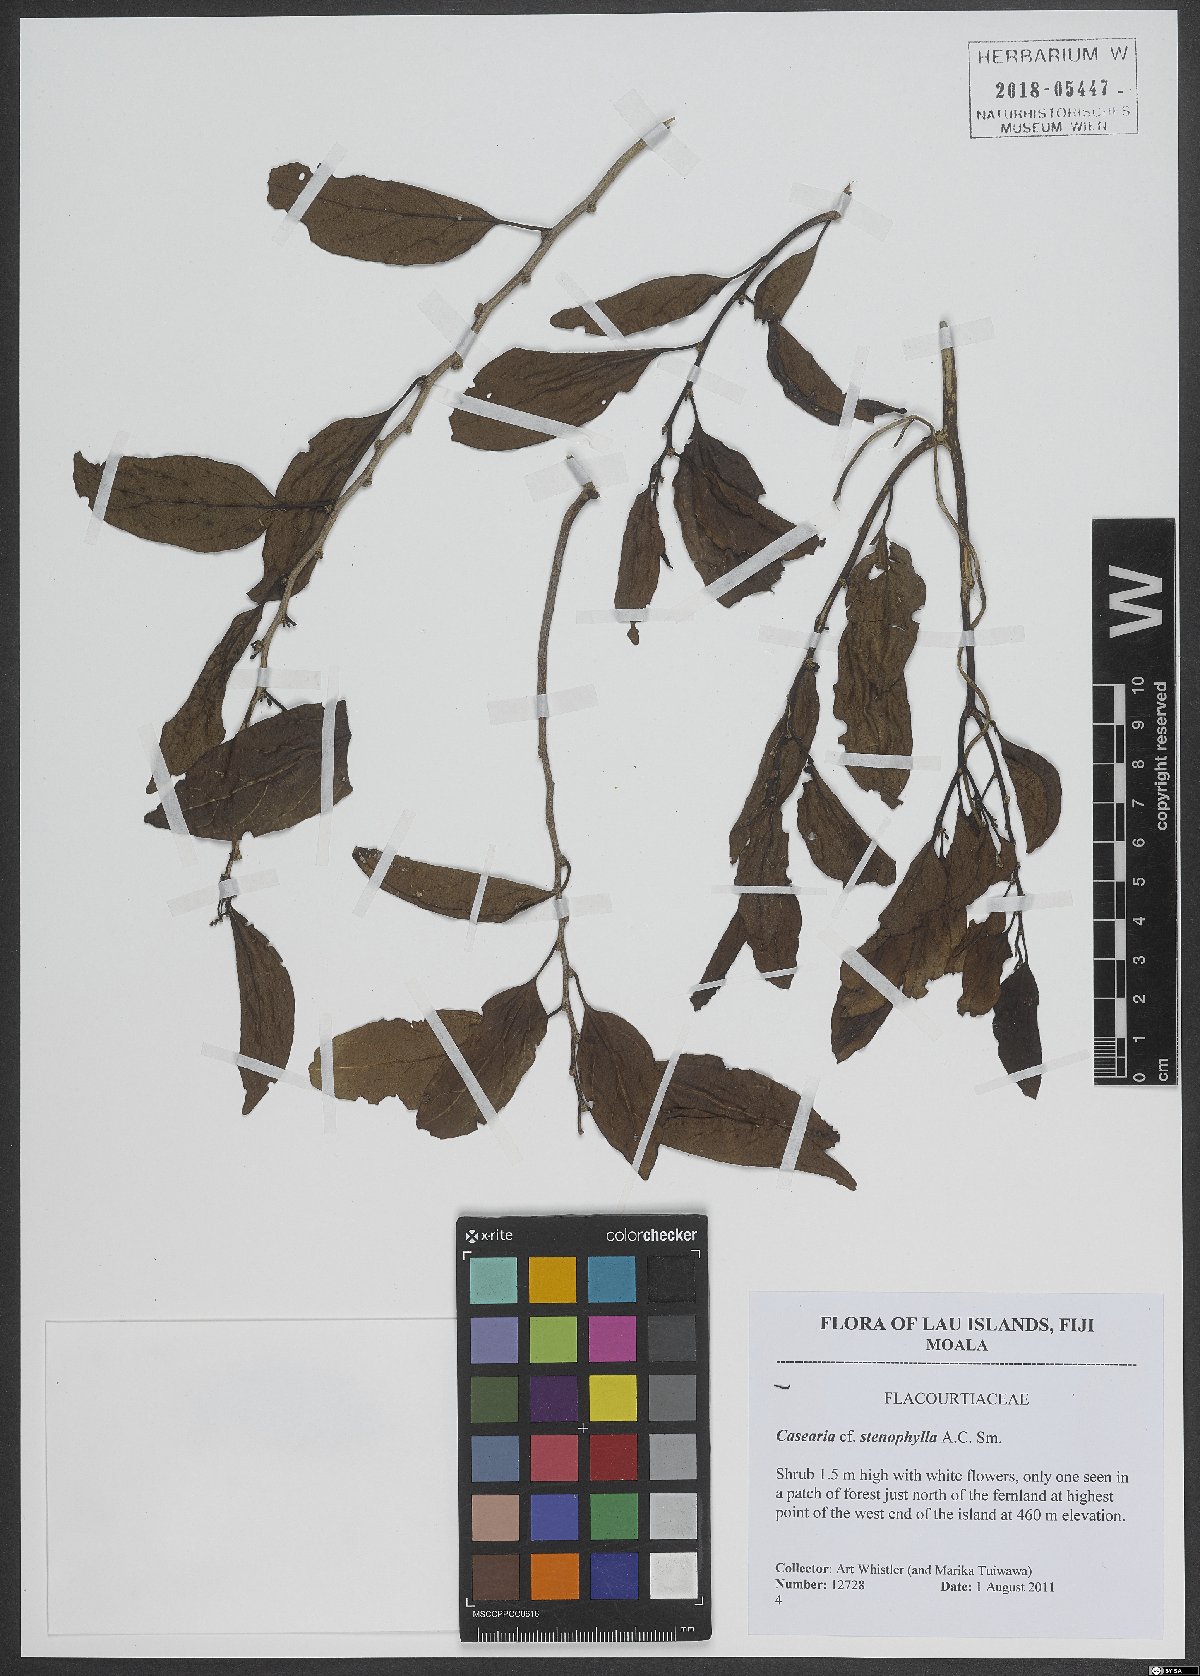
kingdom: Plantae
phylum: Tracheophyta
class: Magnoliopsida
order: Malpighiales
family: Salicaceae
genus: Casearia
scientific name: Casearia stenophylla
